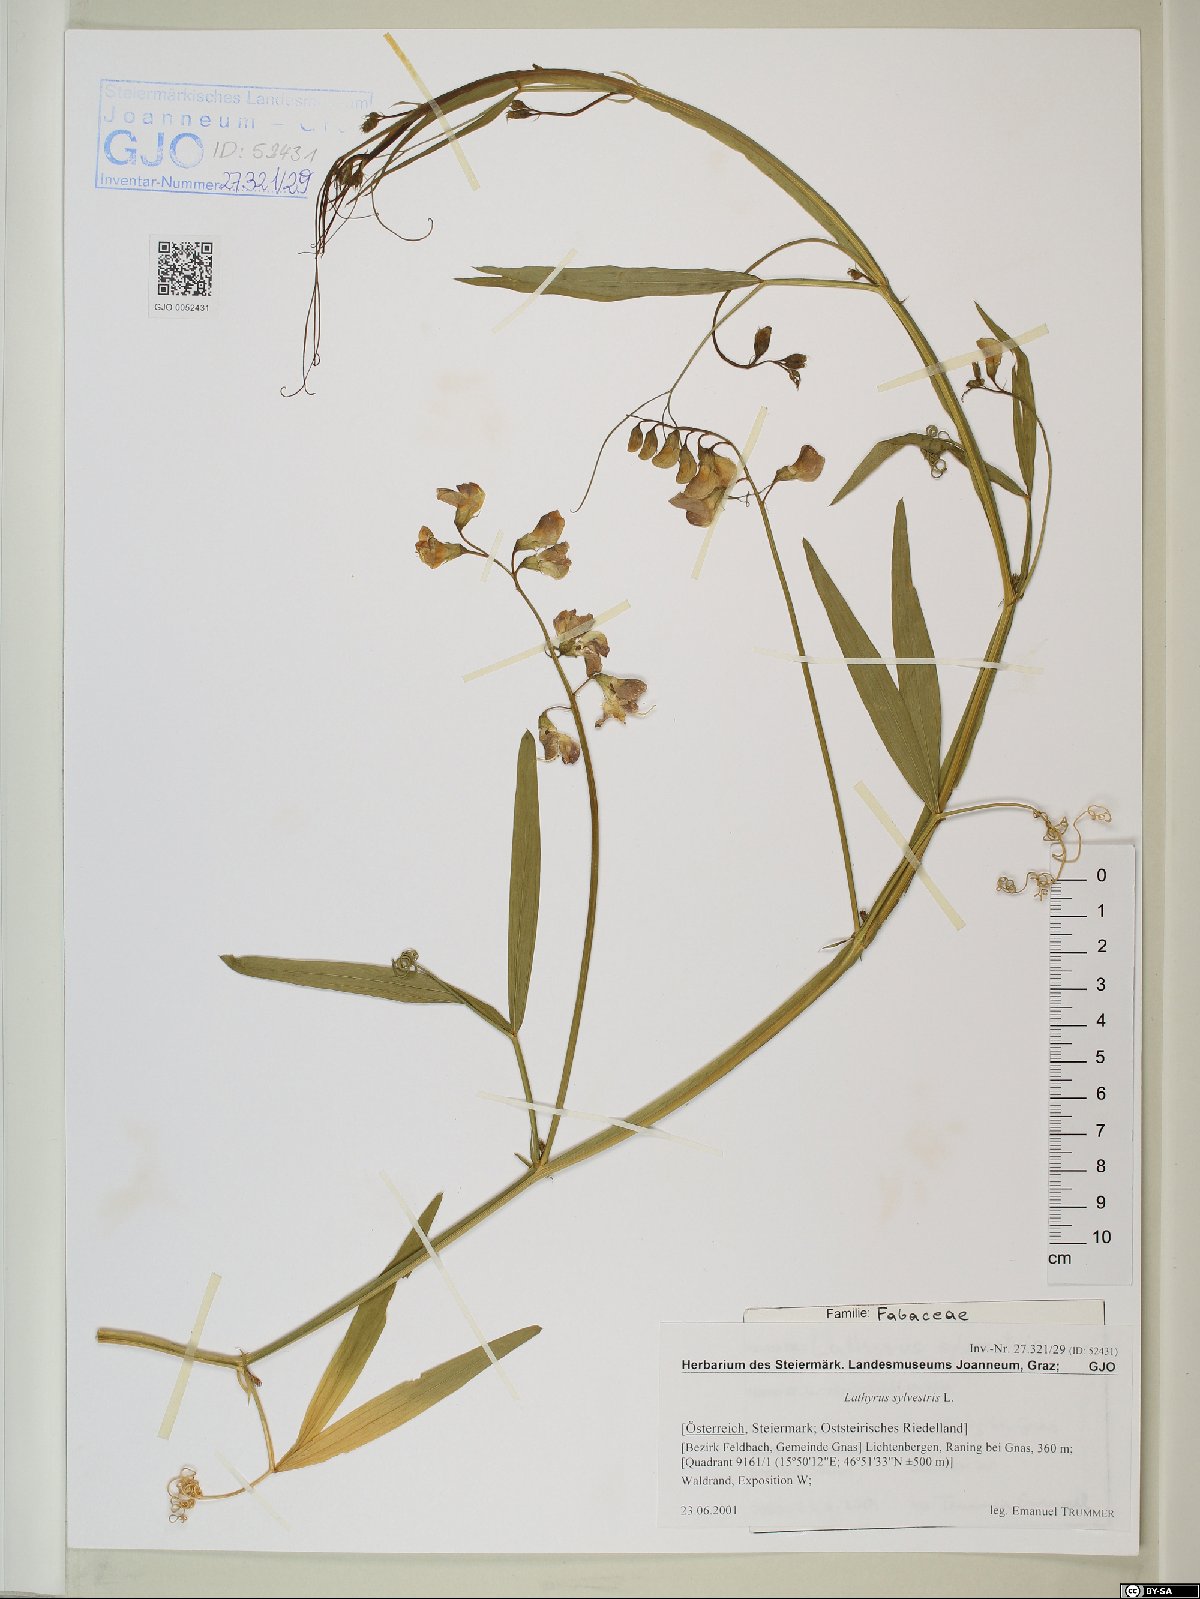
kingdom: Plantae
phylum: Tracheophyta
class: Magnoliopsida
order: Fabales
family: Fabaceae
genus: Lathyrus
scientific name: Lathyrus sylvestris
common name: Flat pea
